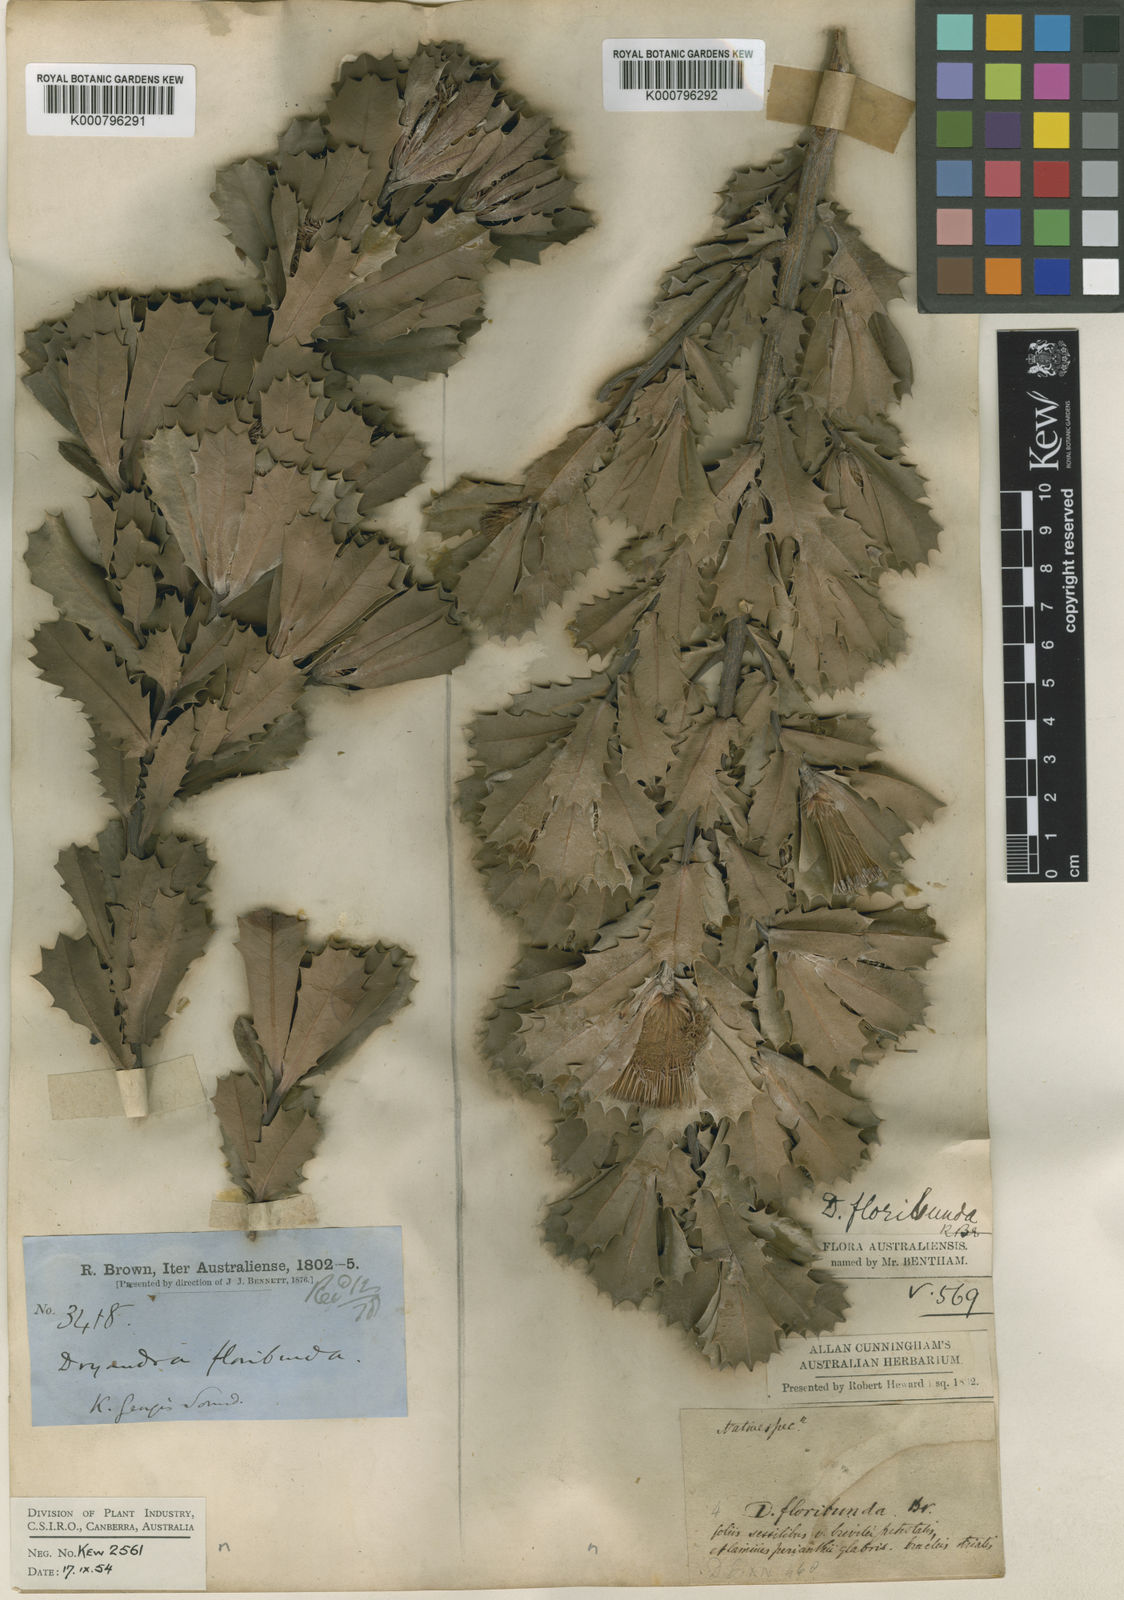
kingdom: Plantae
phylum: Tracheophyta
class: Magnoliopsida
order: Proteales
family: Proteaceae
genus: Banksia
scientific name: Banksia sessilis
